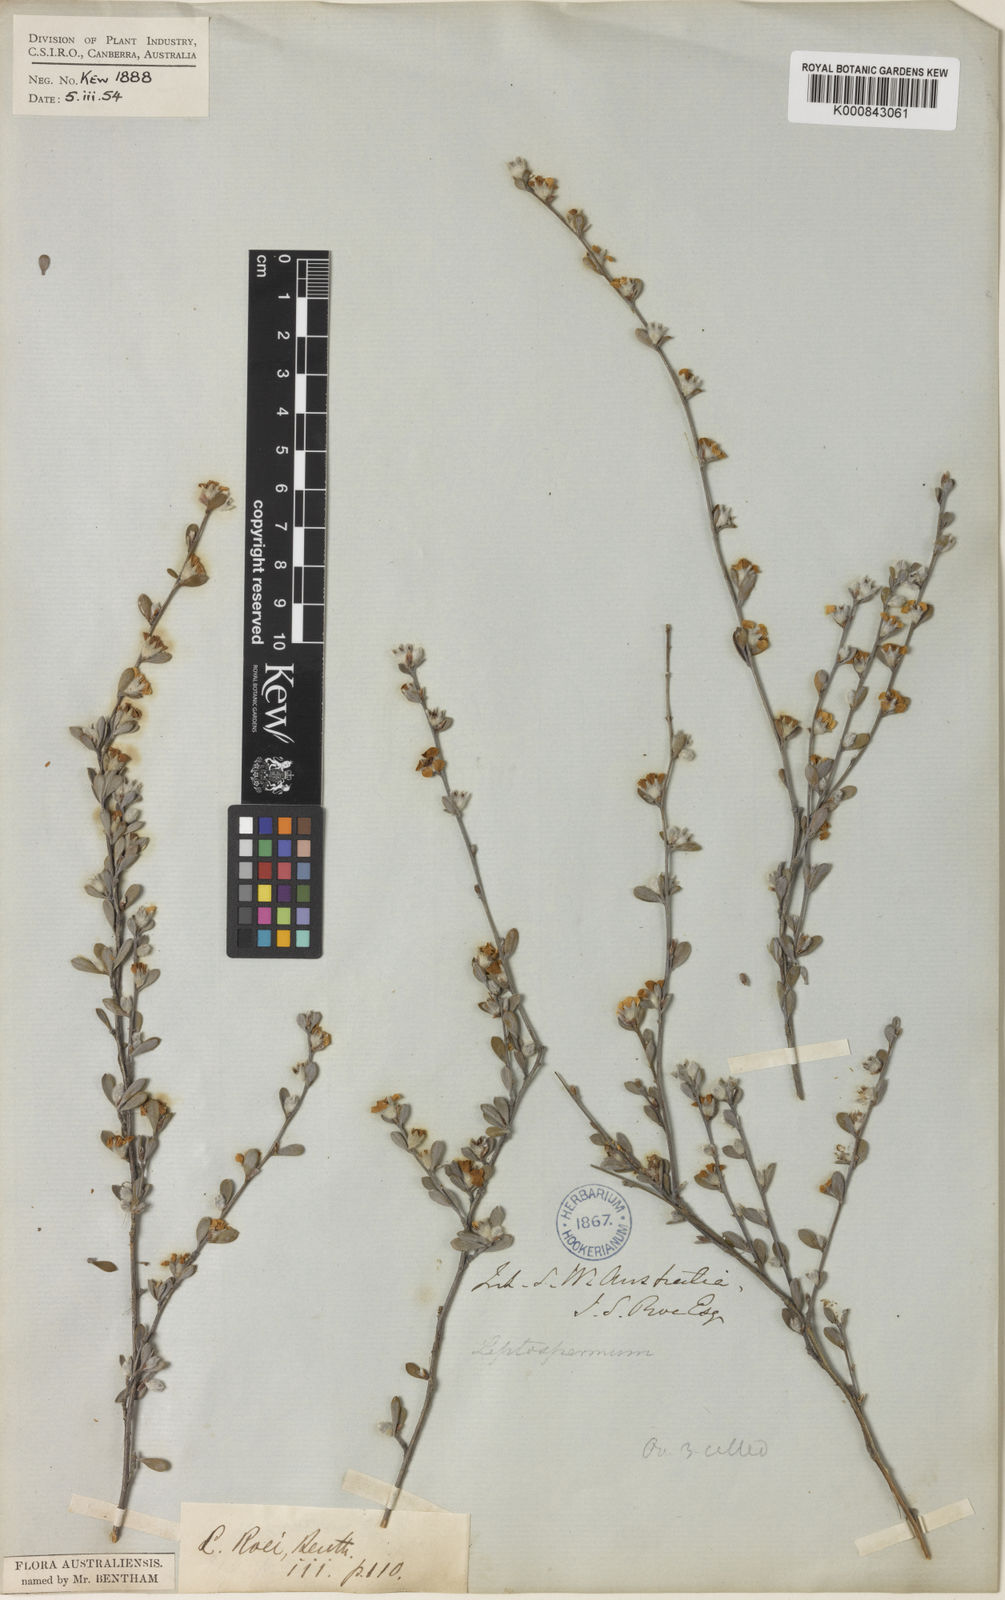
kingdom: Plantae
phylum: Tracheophyta
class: Magnoliopsida
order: Myrtales
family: Myrtaceae
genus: Leptospermum
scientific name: Leptospermum roei
